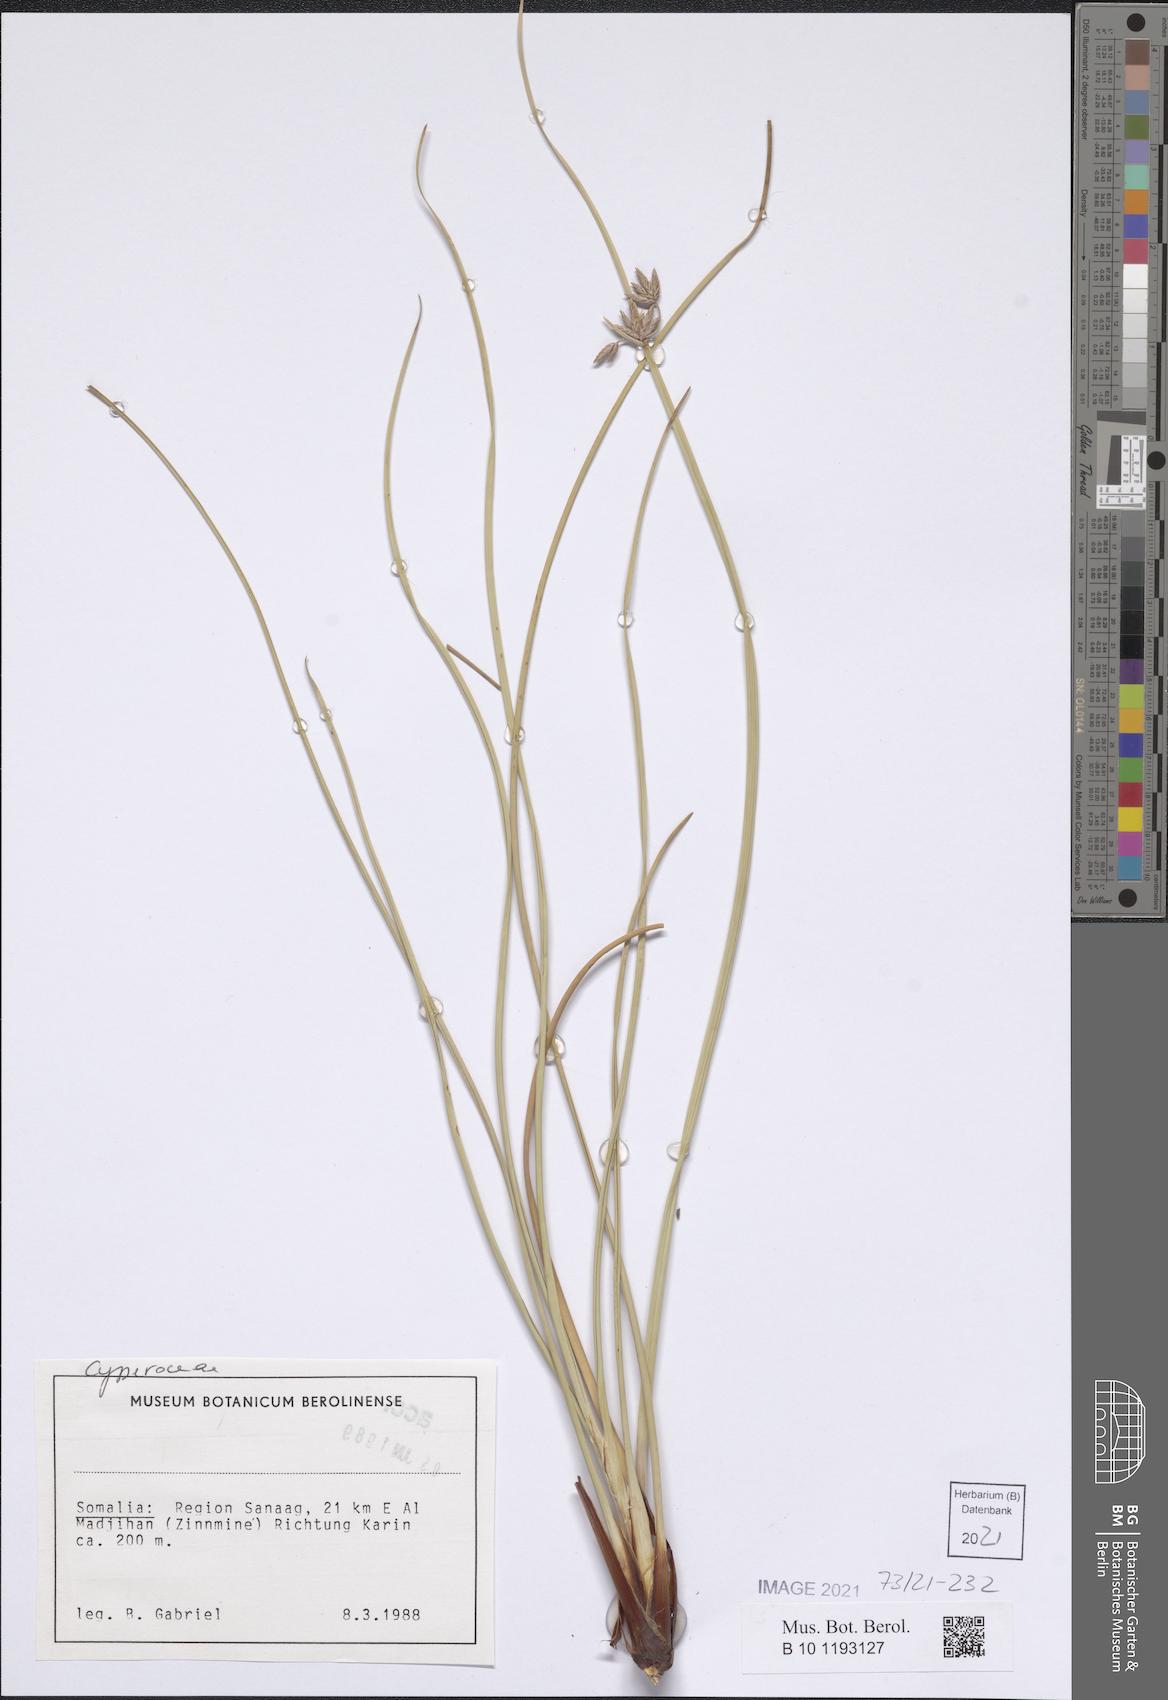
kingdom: Plantae
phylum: Tracheophyta
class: Liliopsida
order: Poales
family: Cyperaceae
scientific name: Cyperaceae
